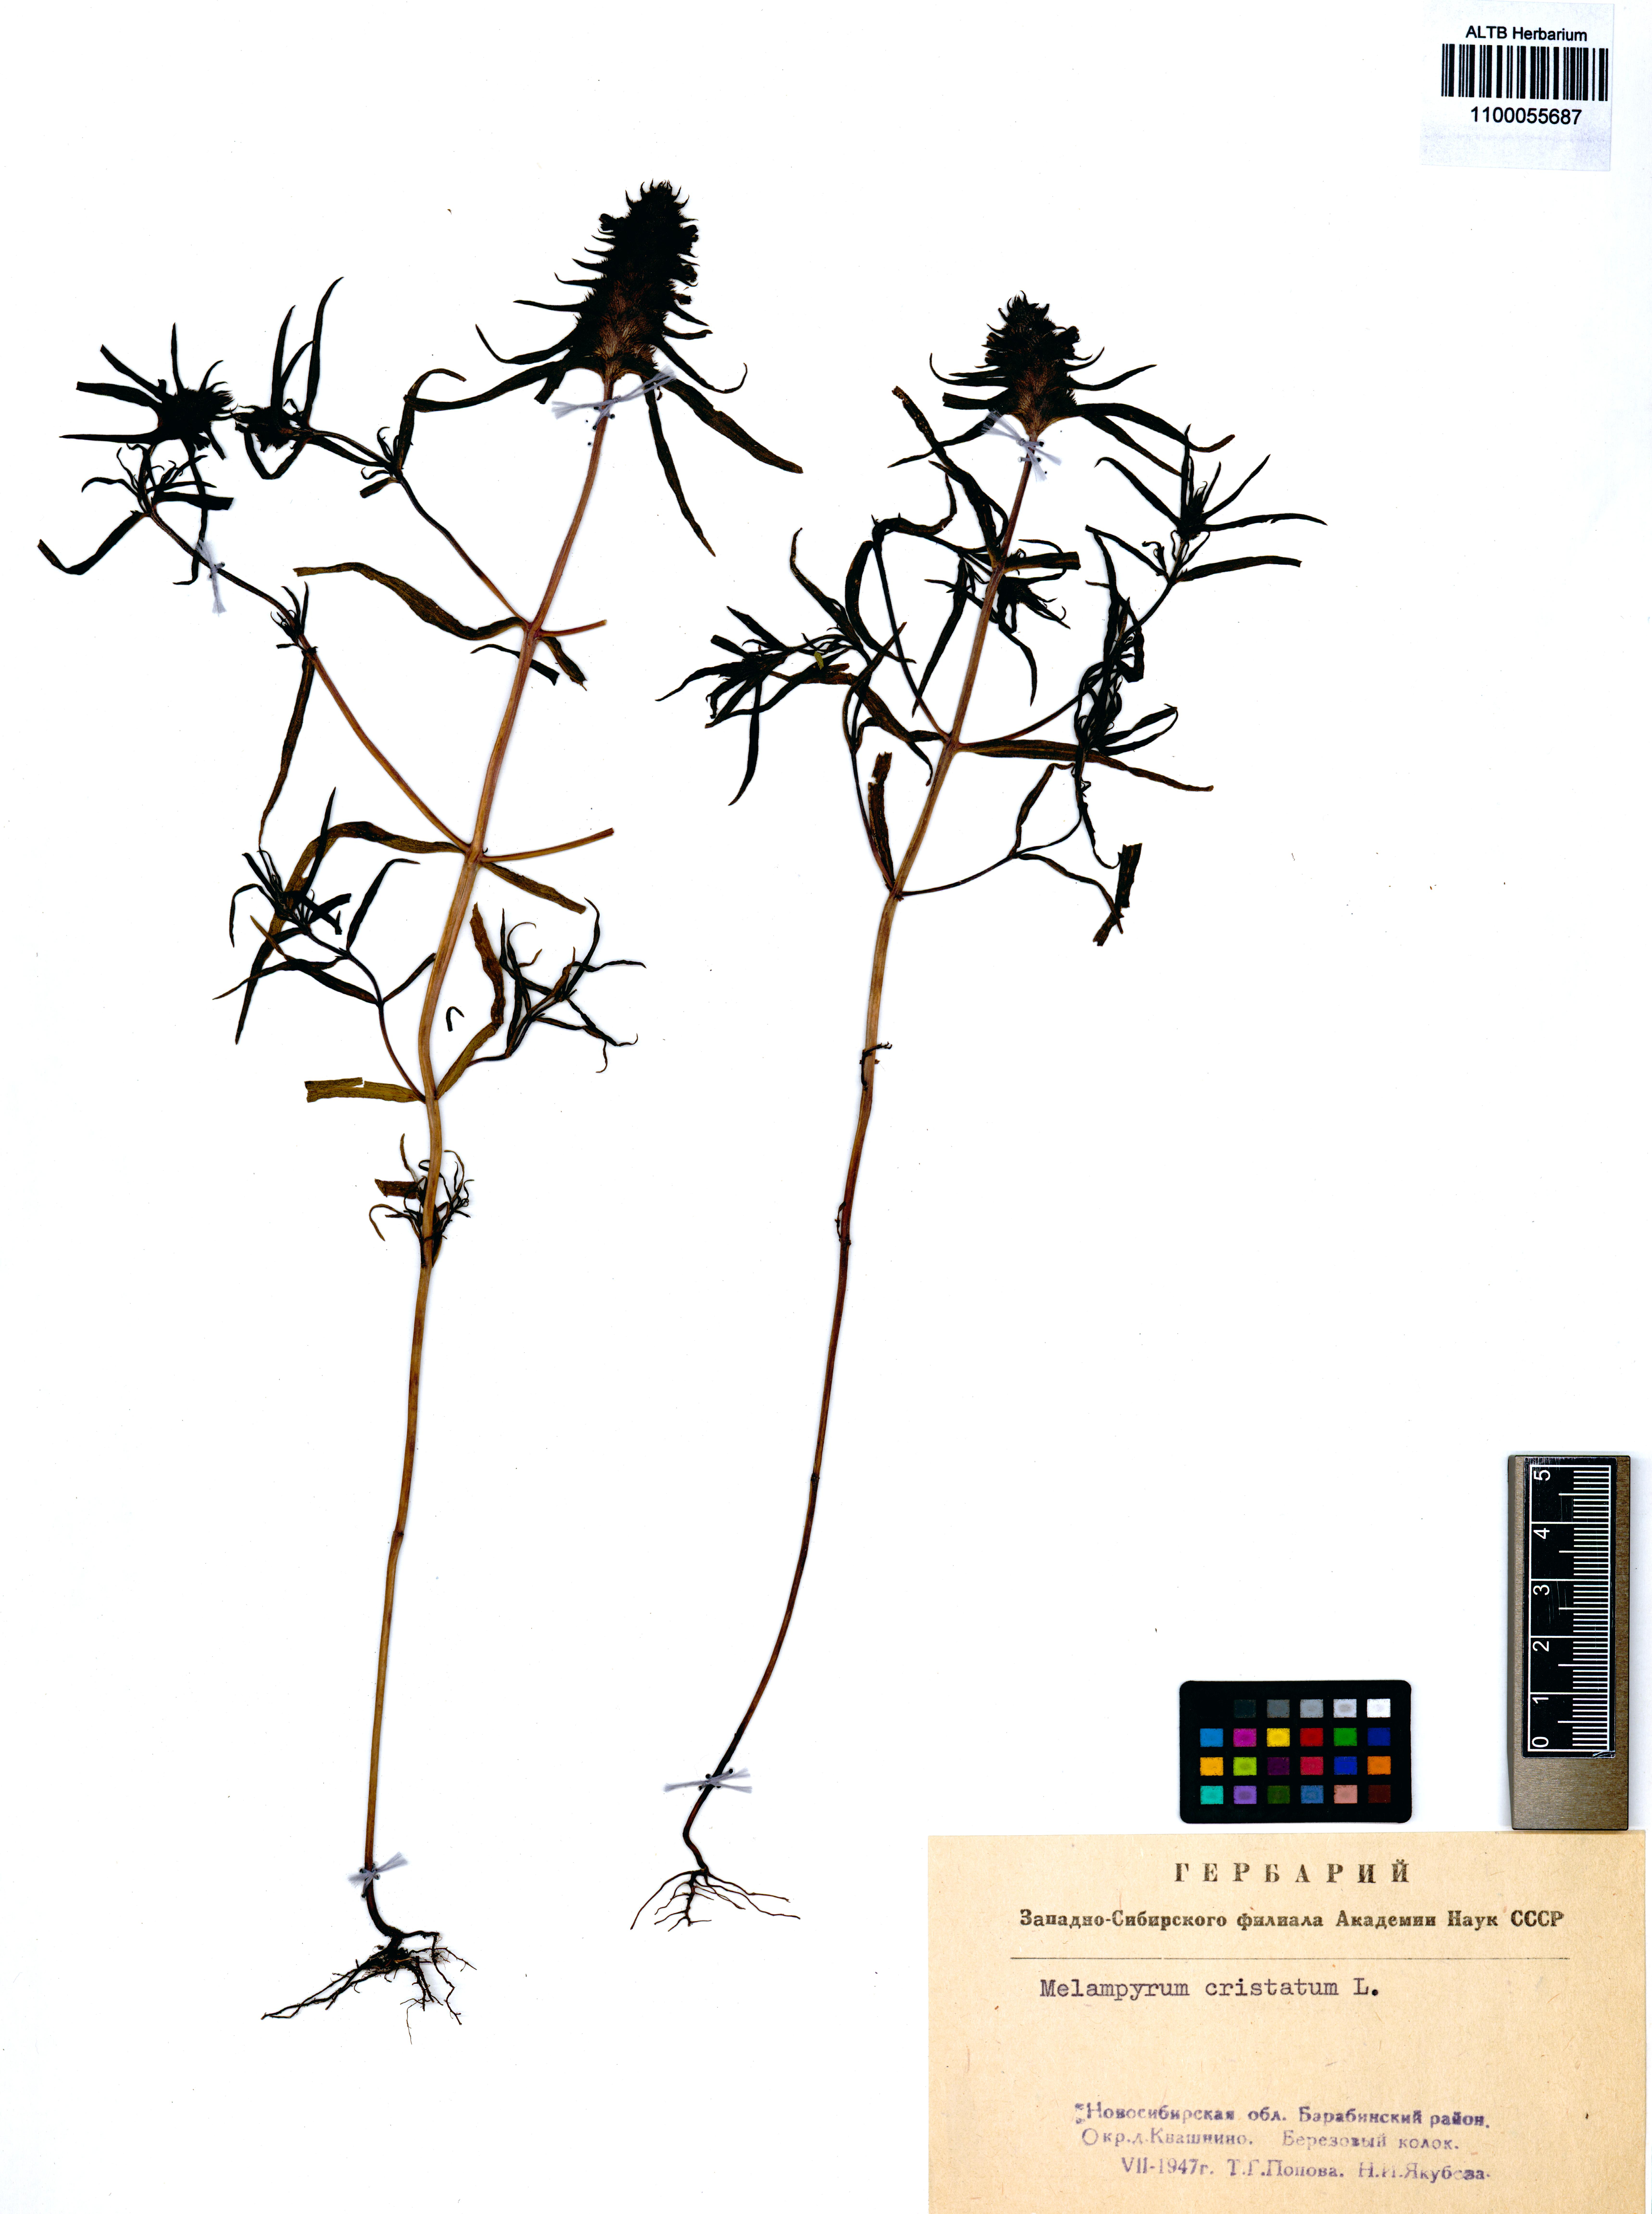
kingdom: Plantae
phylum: Tracheophyta
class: Magnoliopsida
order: Lamiales
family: Orobanchaceae
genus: Melampyrum
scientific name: Melampyrum cristatum
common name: Crested cow-wheat
